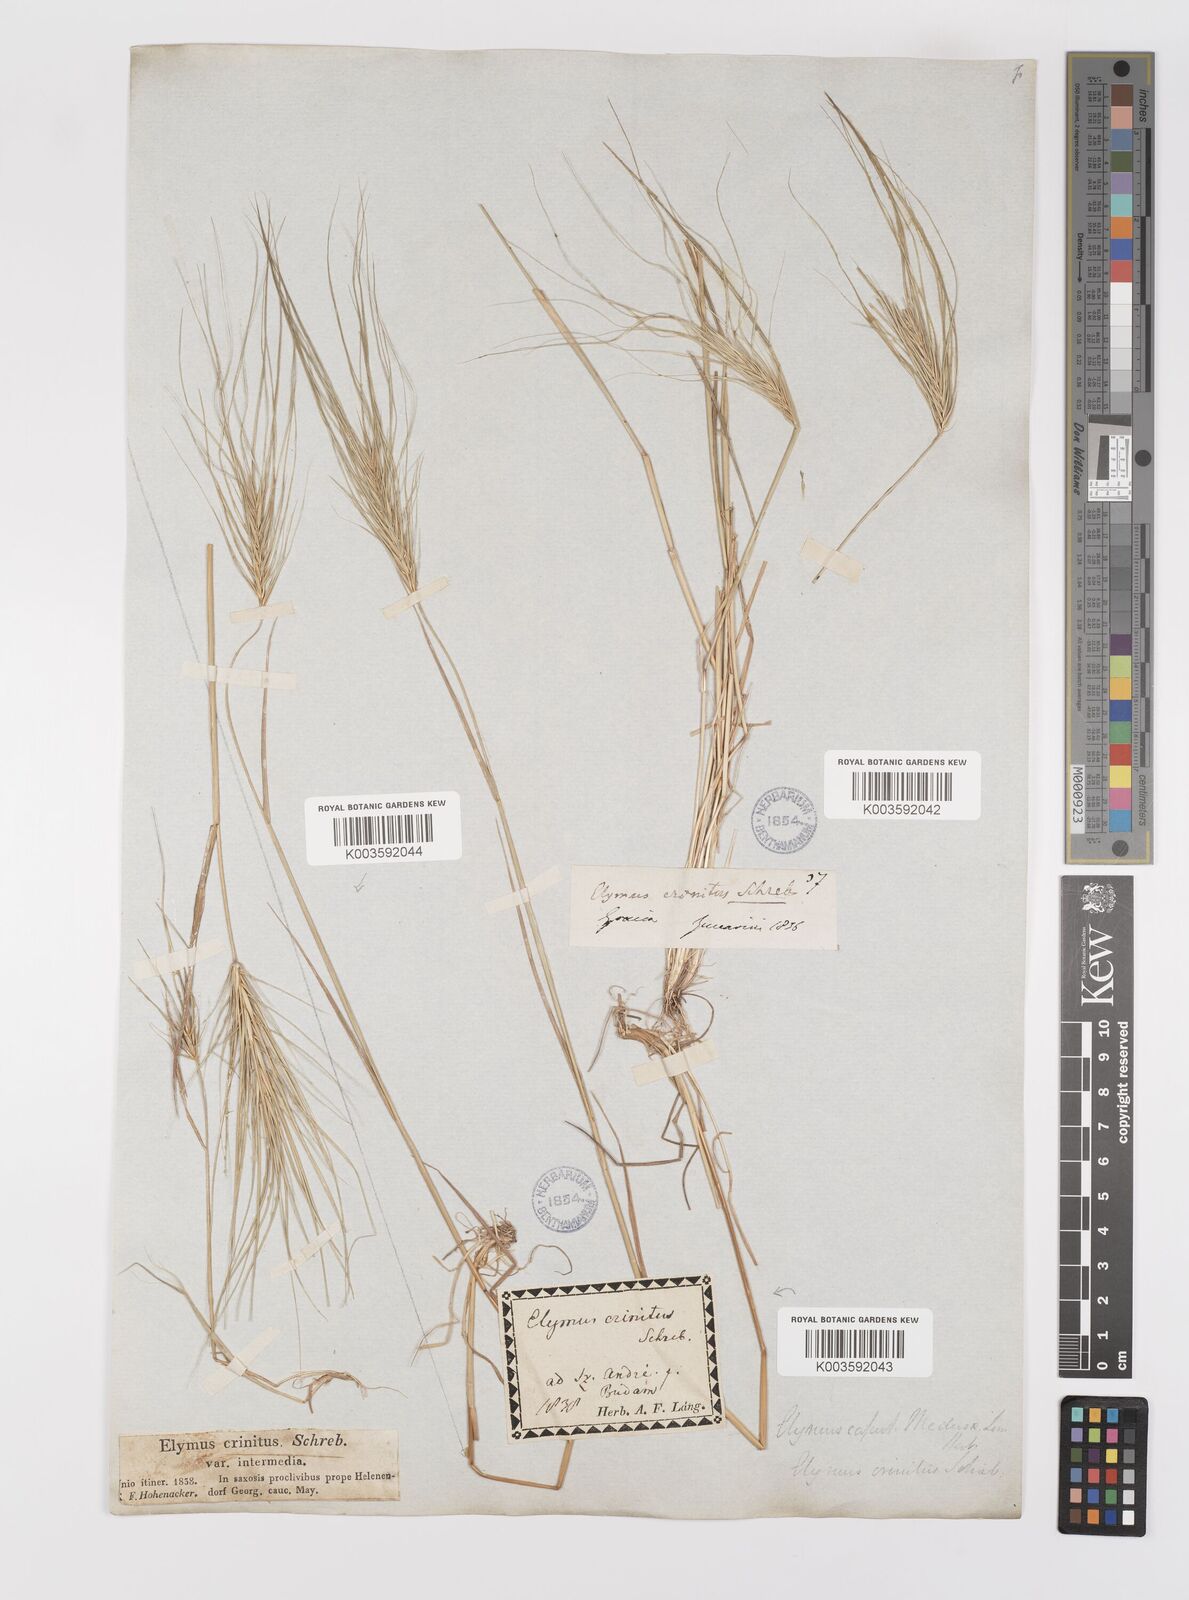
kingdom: Plantae
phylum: Tracheophyta
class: Liliopsida
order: Poales
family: Poaceae
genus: Taeniatherum
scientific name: Taeniatherum caput-medusae
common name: Medusahead
